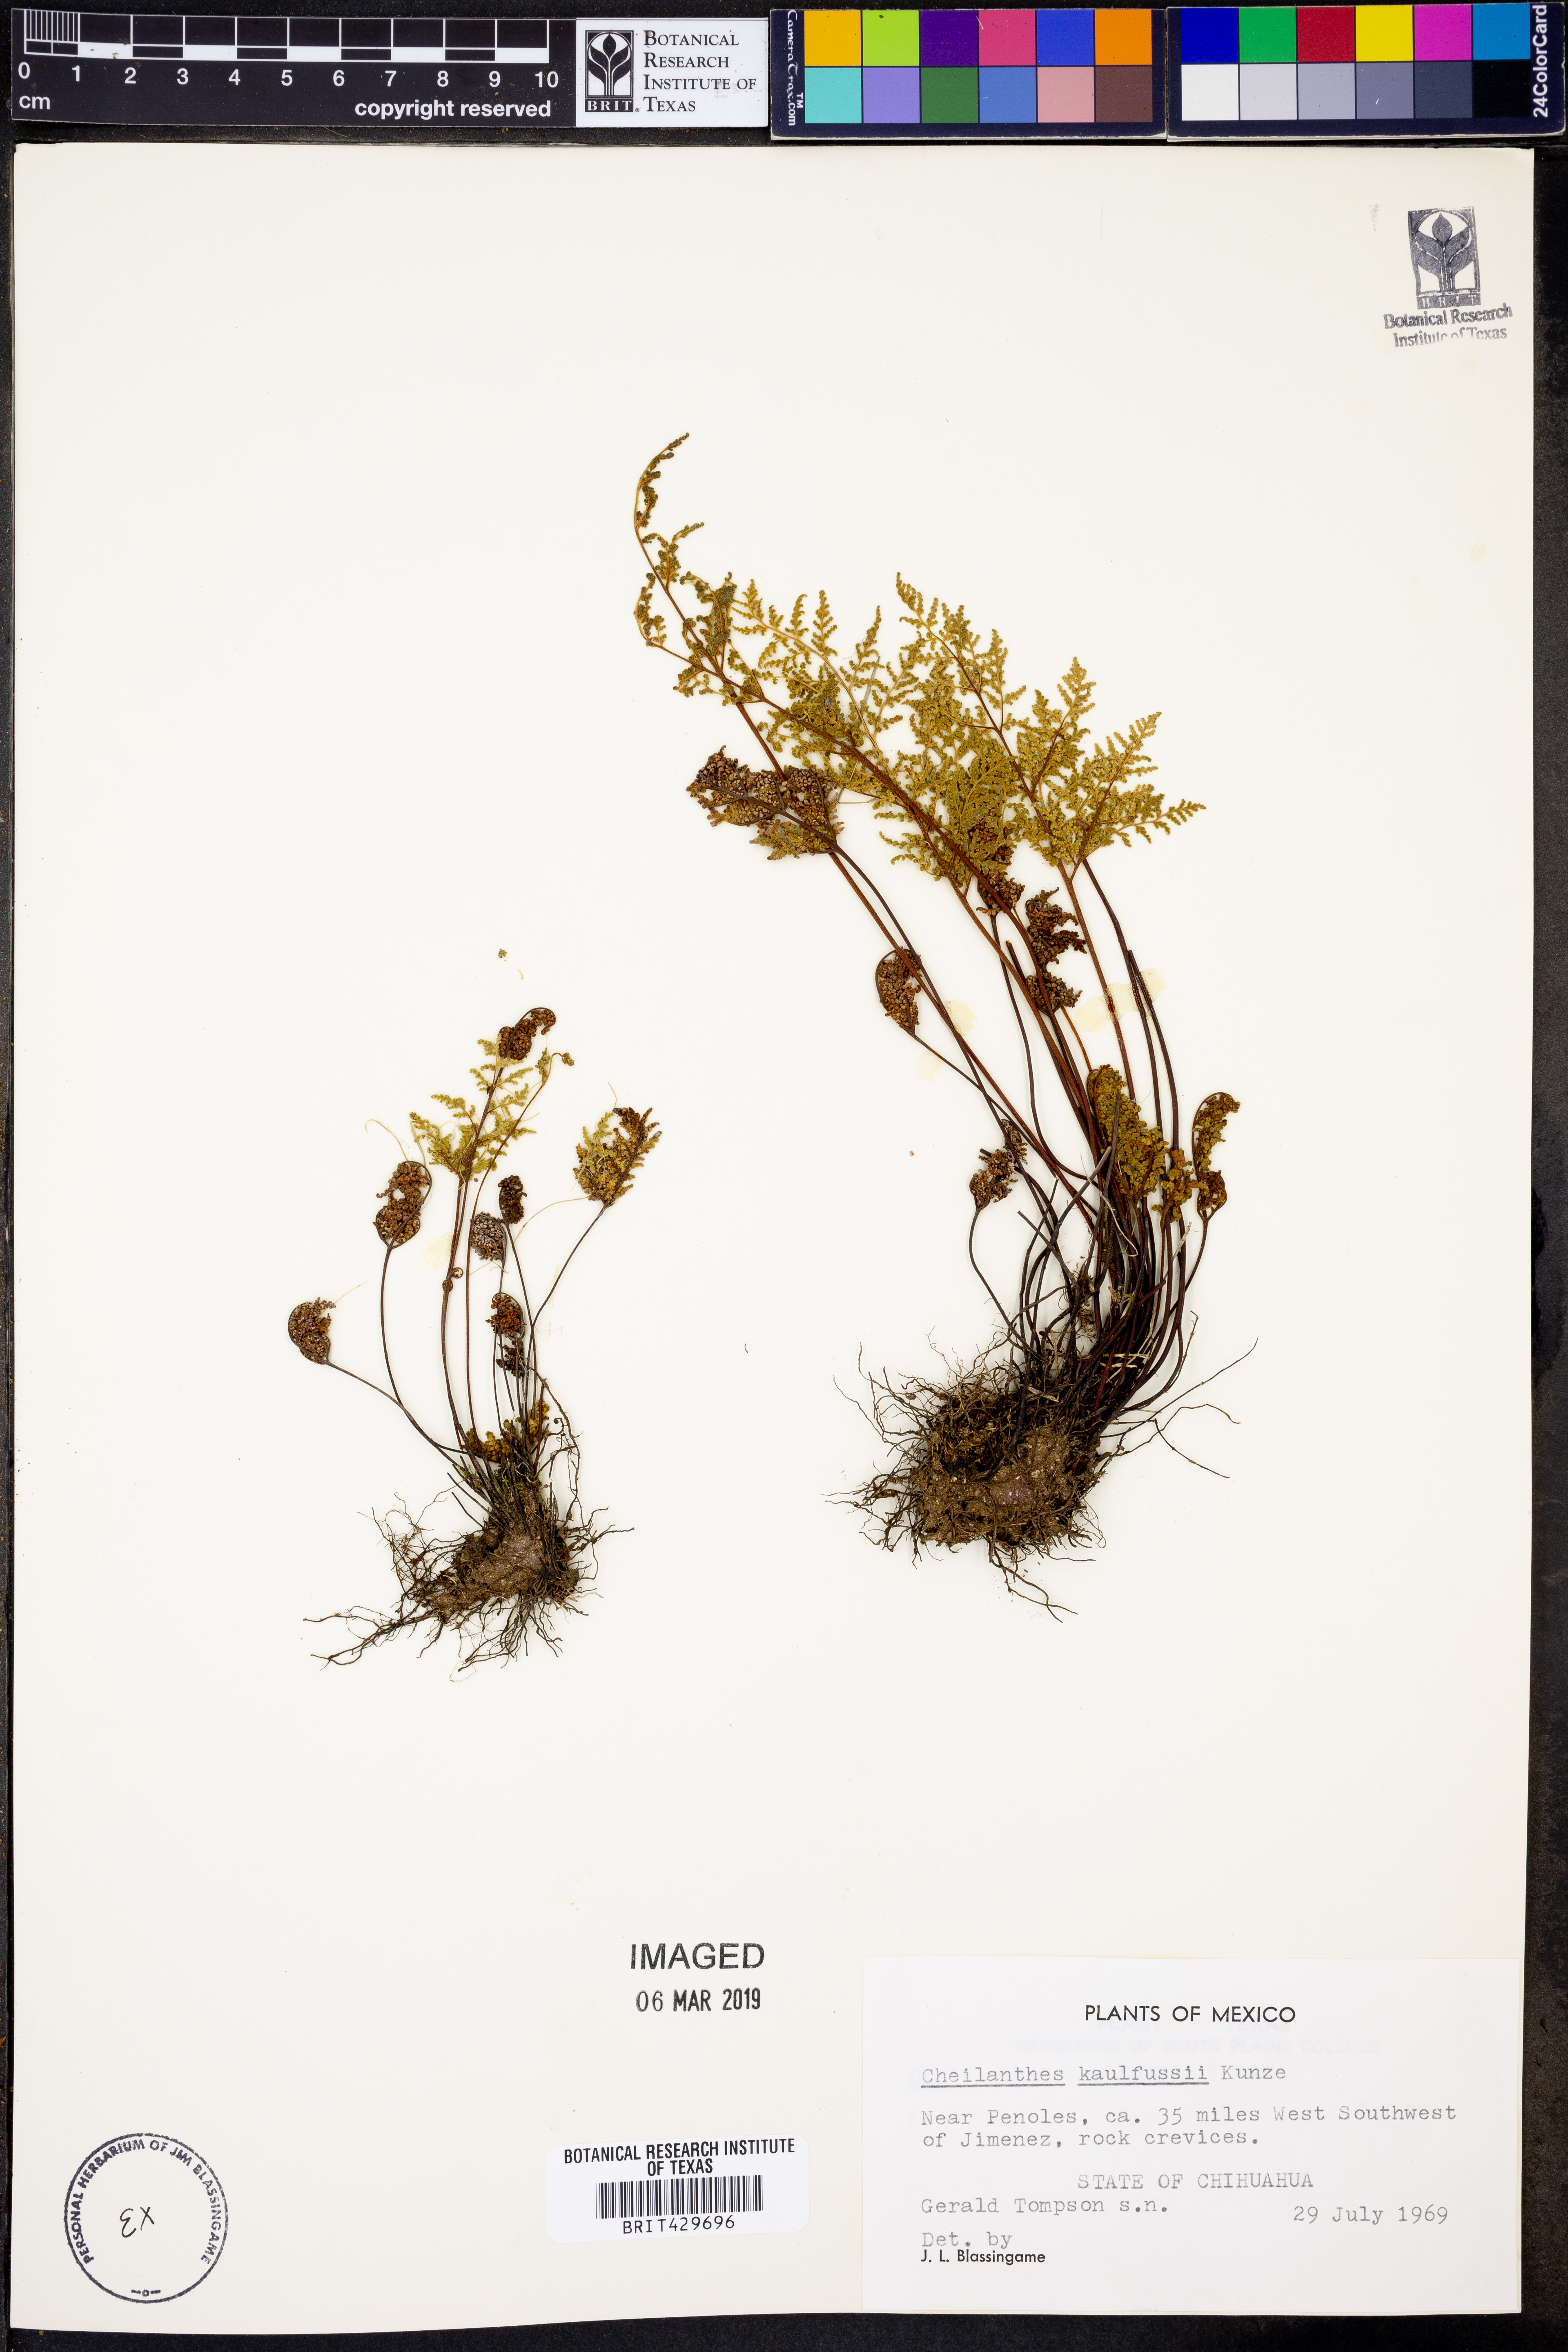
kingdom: Plantae
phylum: Tracheophyta
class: Polypodiopsida
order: Polypodiales
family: Pteridaceae
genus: Gaga
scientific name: Gaga kaulfussii
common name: Glandular lip fern
